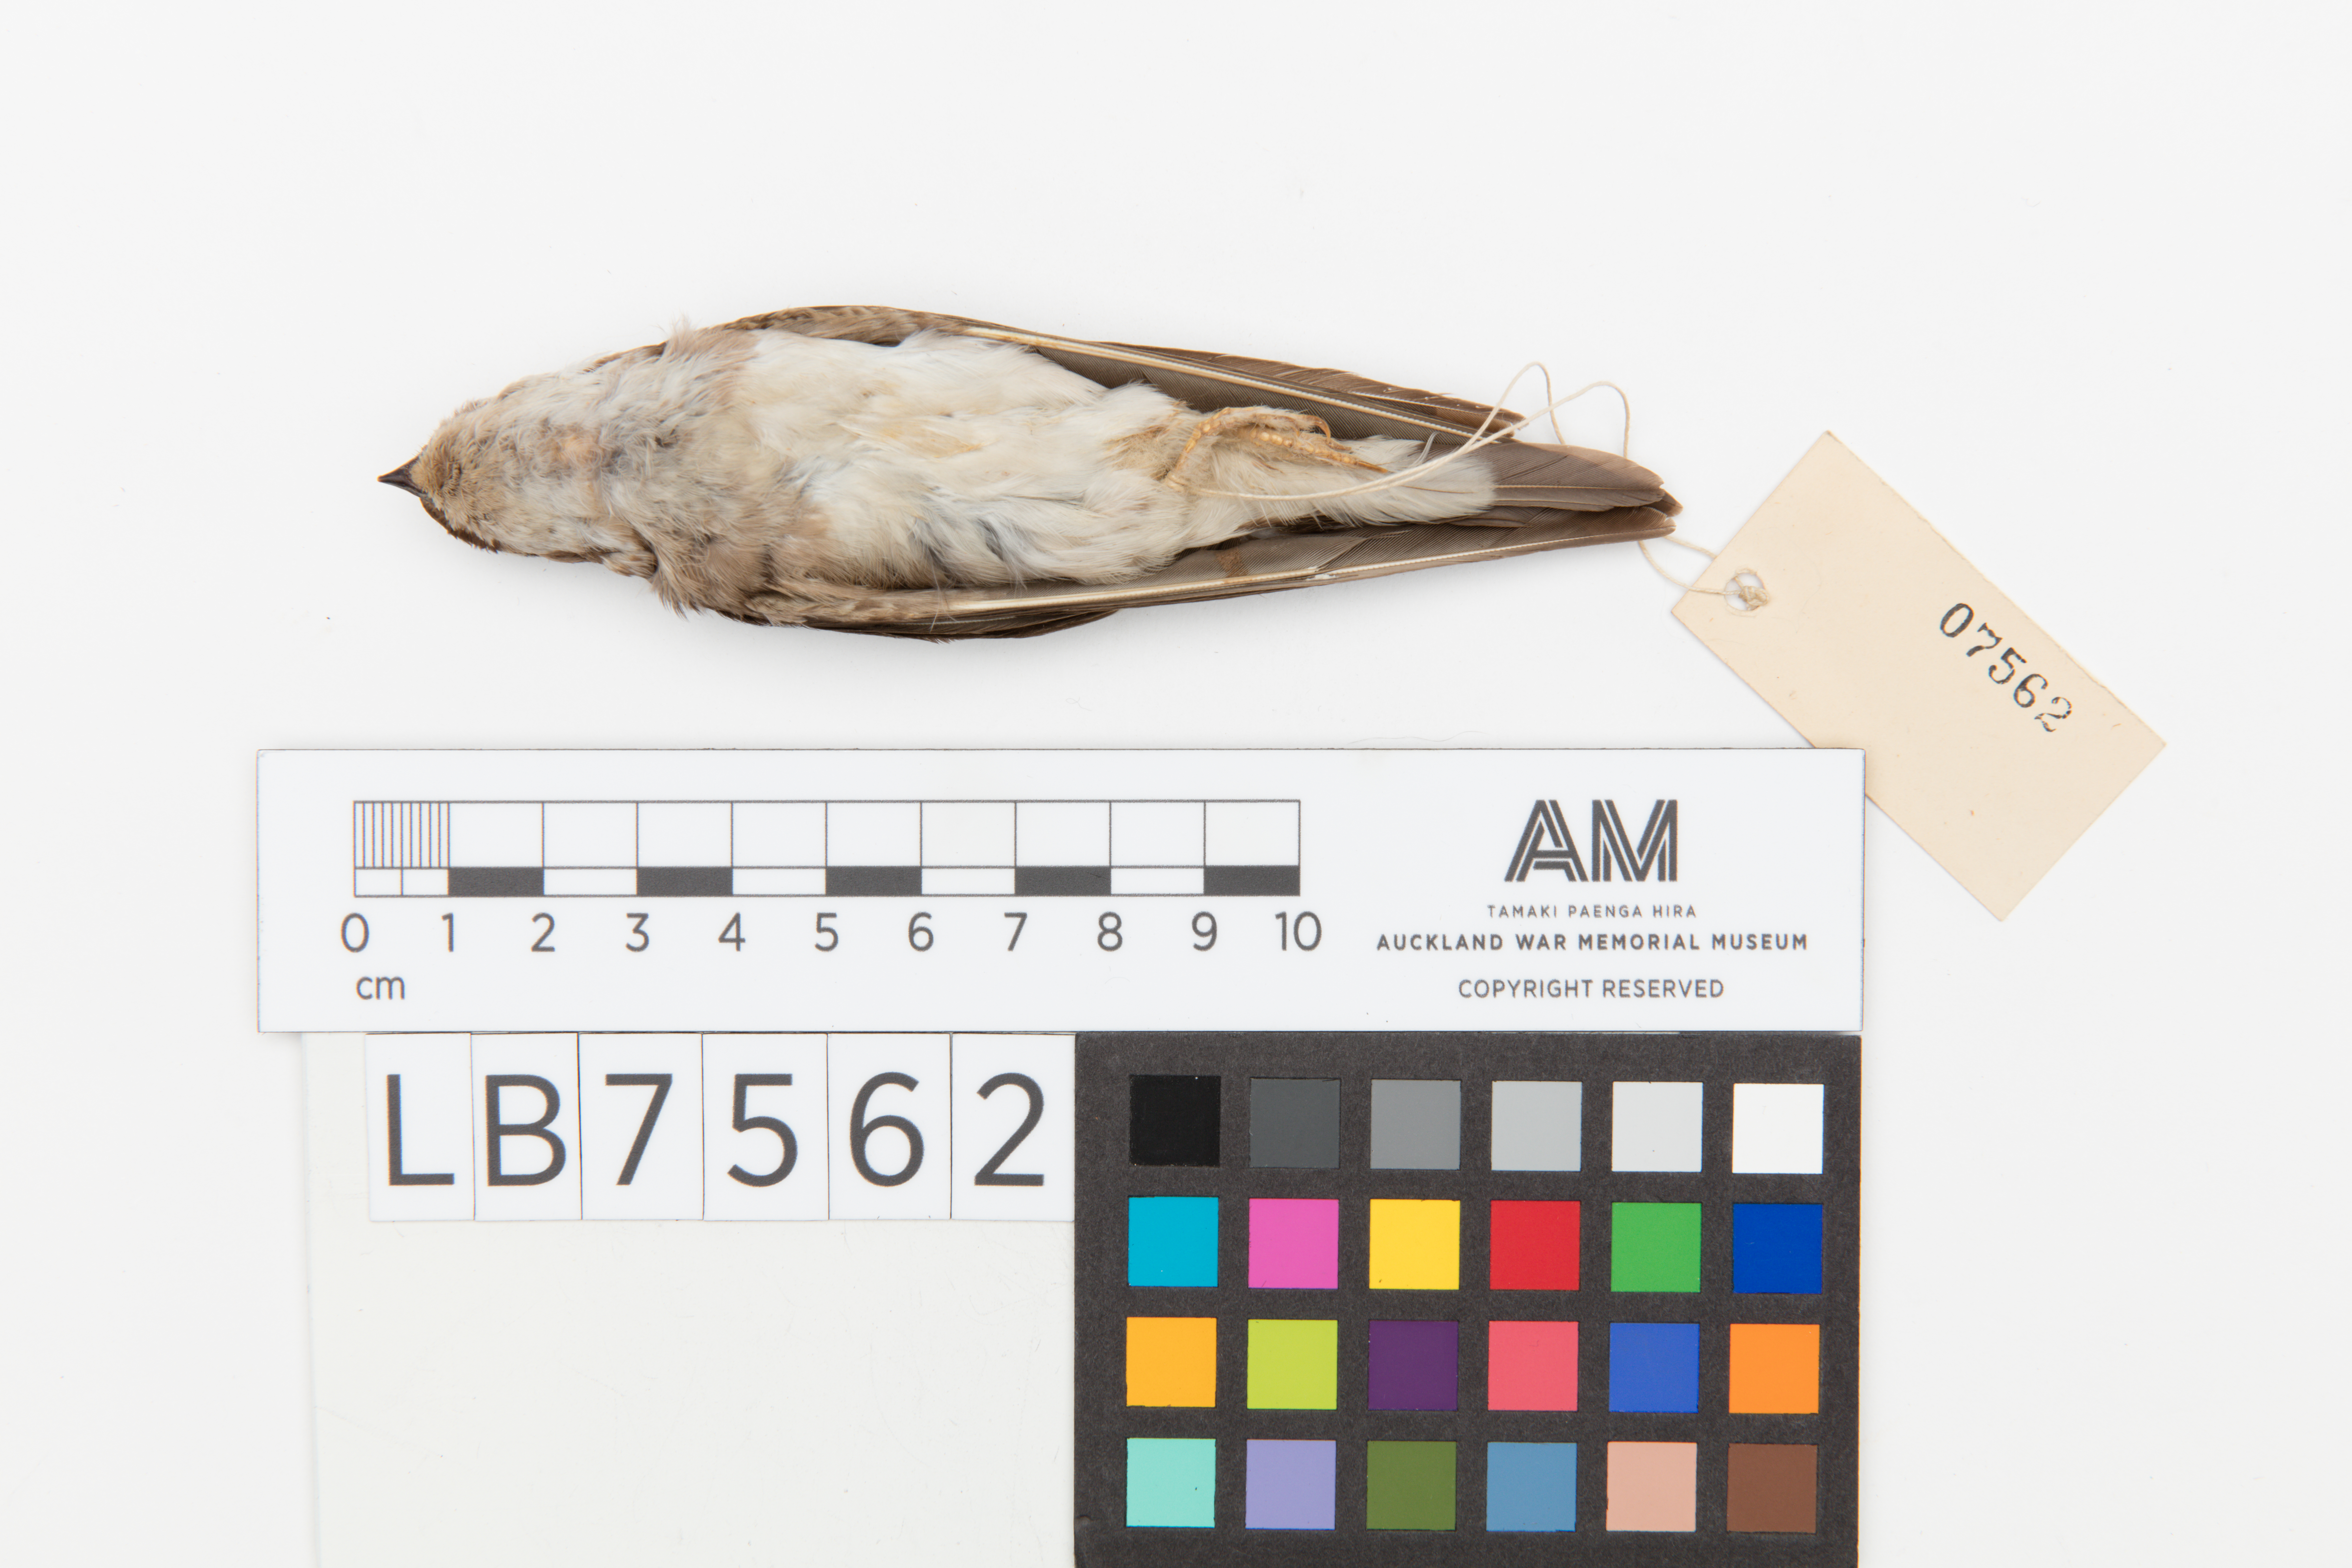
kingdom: Animalia
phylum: Chordata
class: Aves
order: Passeriformes
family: Hirundinidae
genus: Delichon
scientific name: Delichon urbicum
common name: Common house martin
